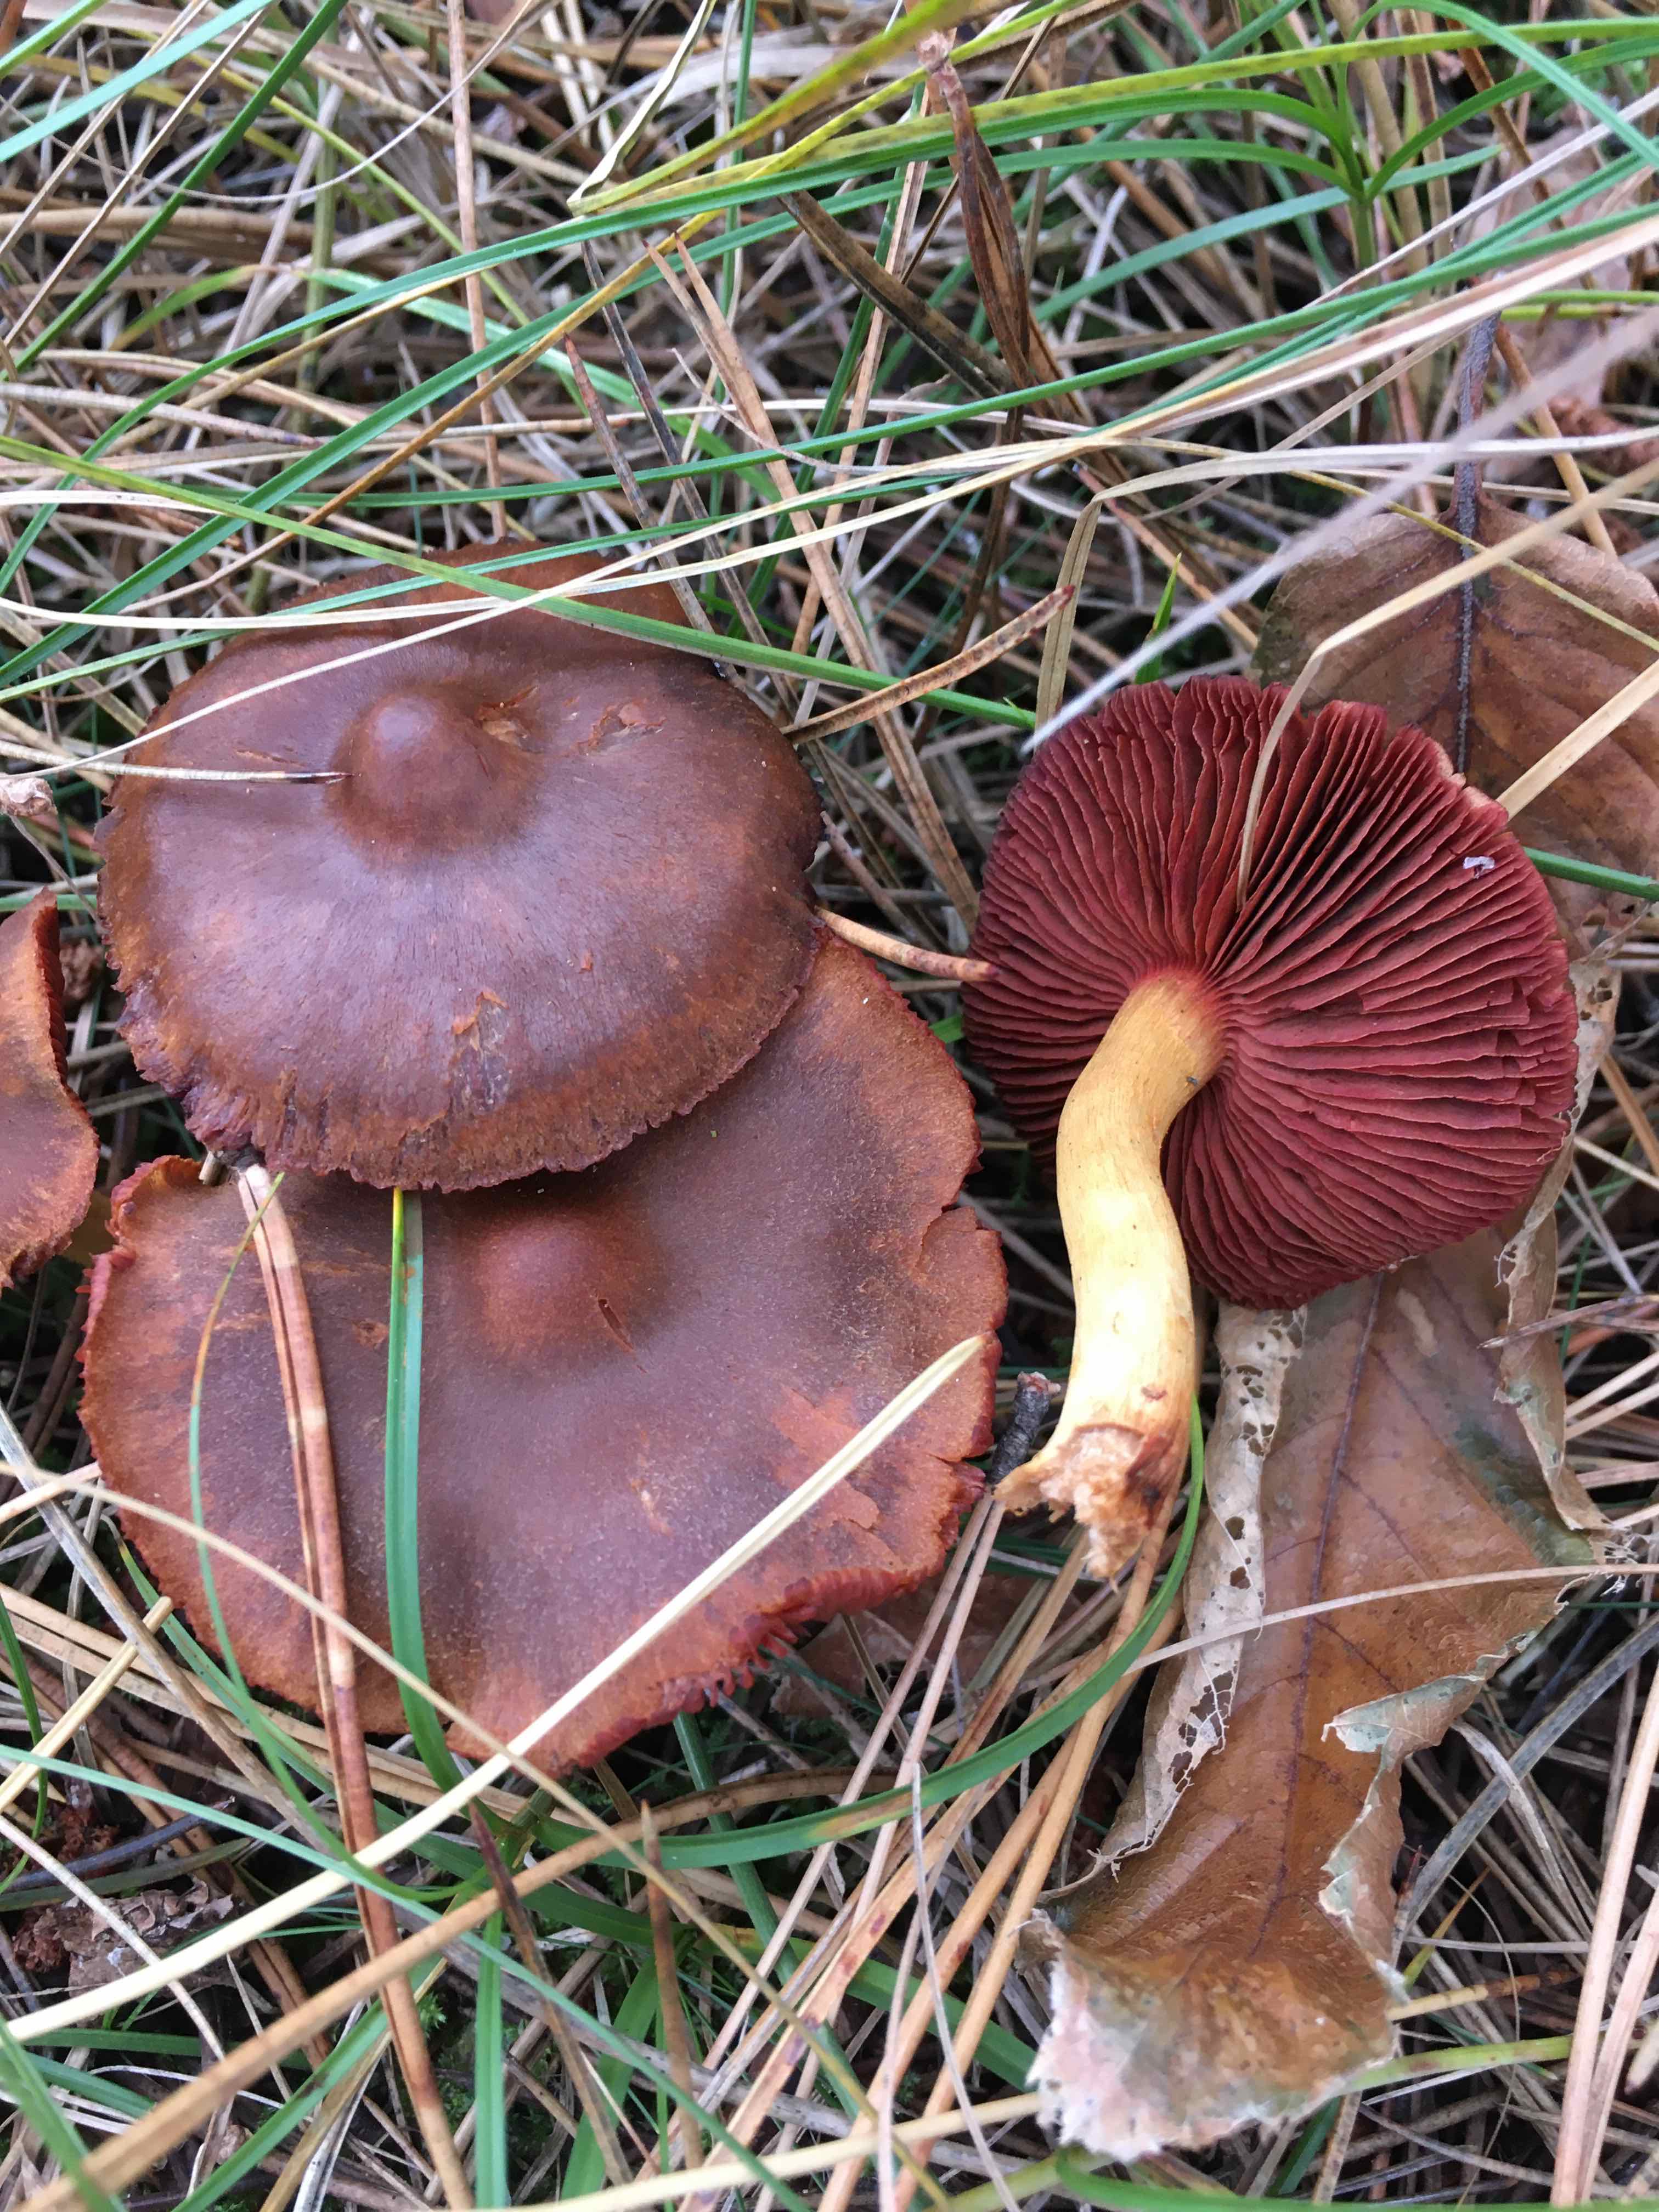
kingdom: Fungi
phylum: Basidiomycota
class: Agaricomycetes
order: Agaricales
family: Cortinariaceae
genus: Cortinarius
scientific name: Cortinarius
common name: cinnoberbladet slørhat
